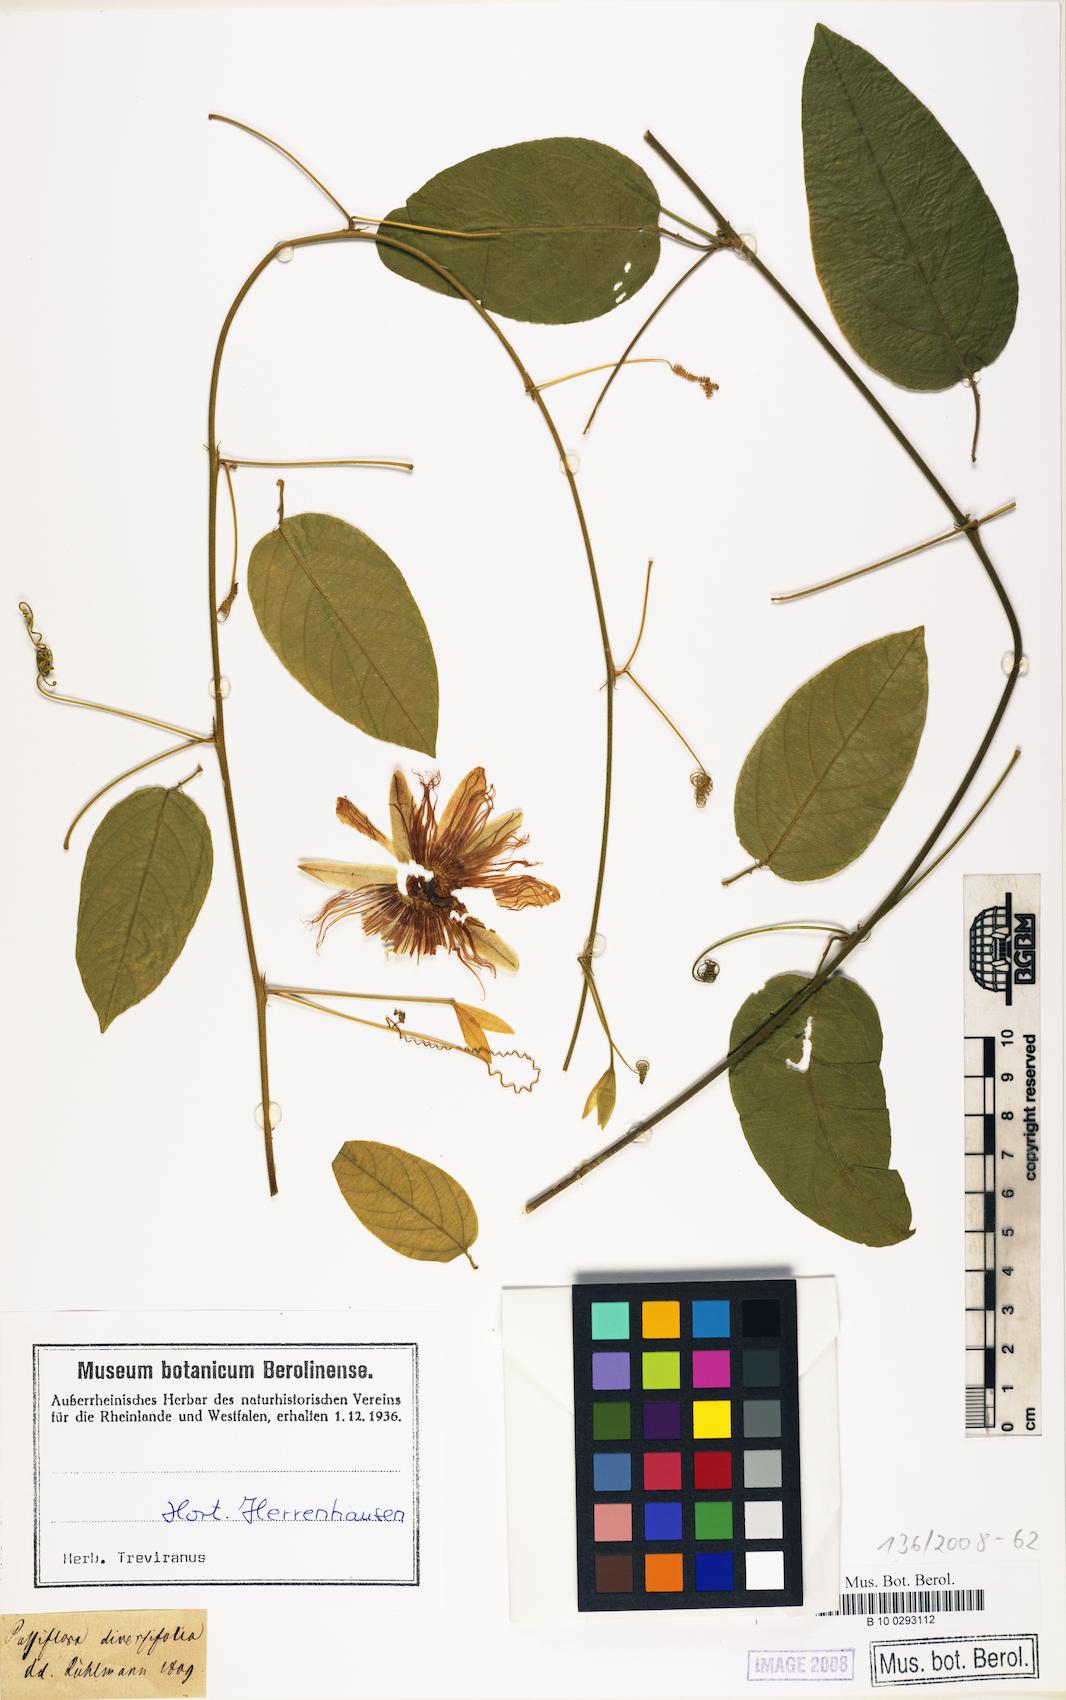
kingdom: Plantae
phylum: Tracheophyta
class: Magnoliopsida
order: Malpighiales
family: Passifloraceae
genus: Passiflora
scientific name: Passiflora
